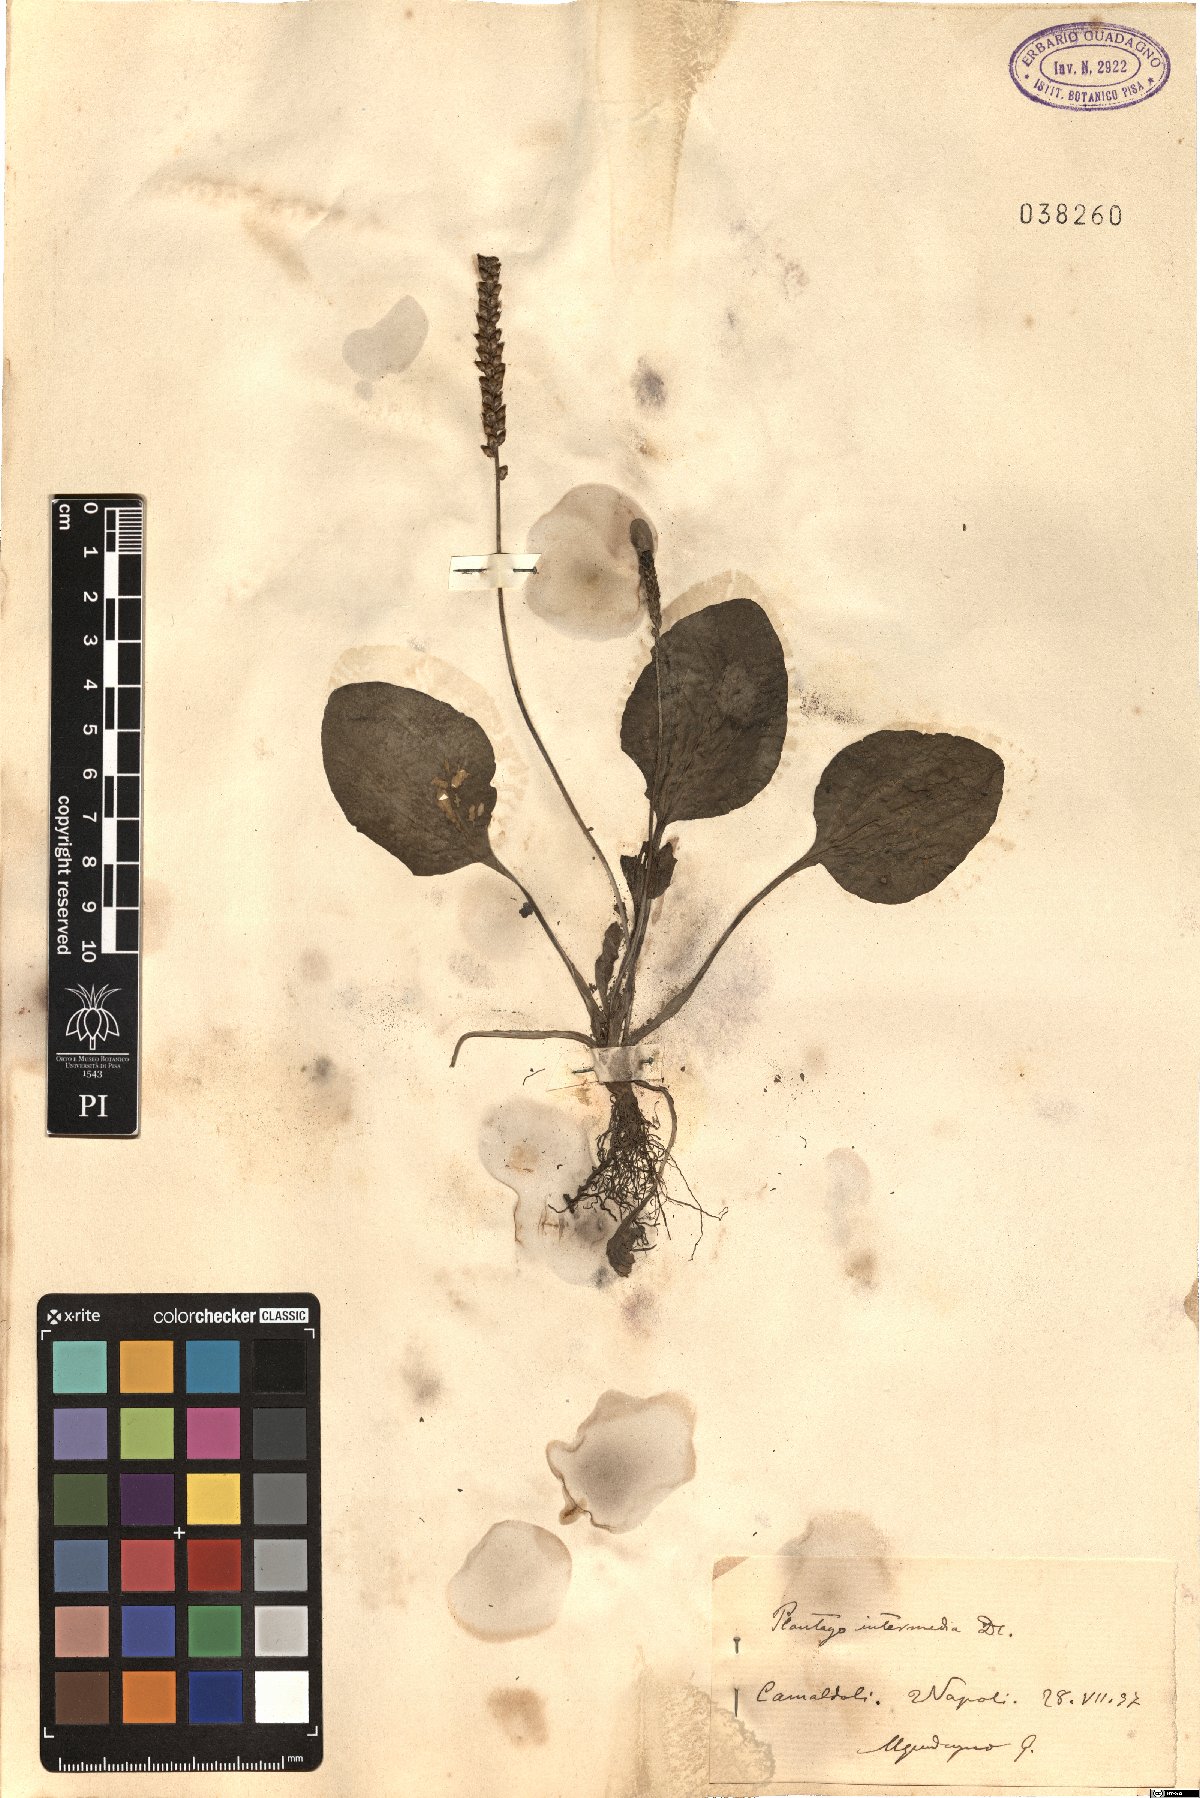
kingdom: Plantae
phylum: Tracheophyta
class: Magnoliopsida
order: Lamiales
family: Plantaginaceae
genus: Plantago
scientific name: Plantago uliginosa
